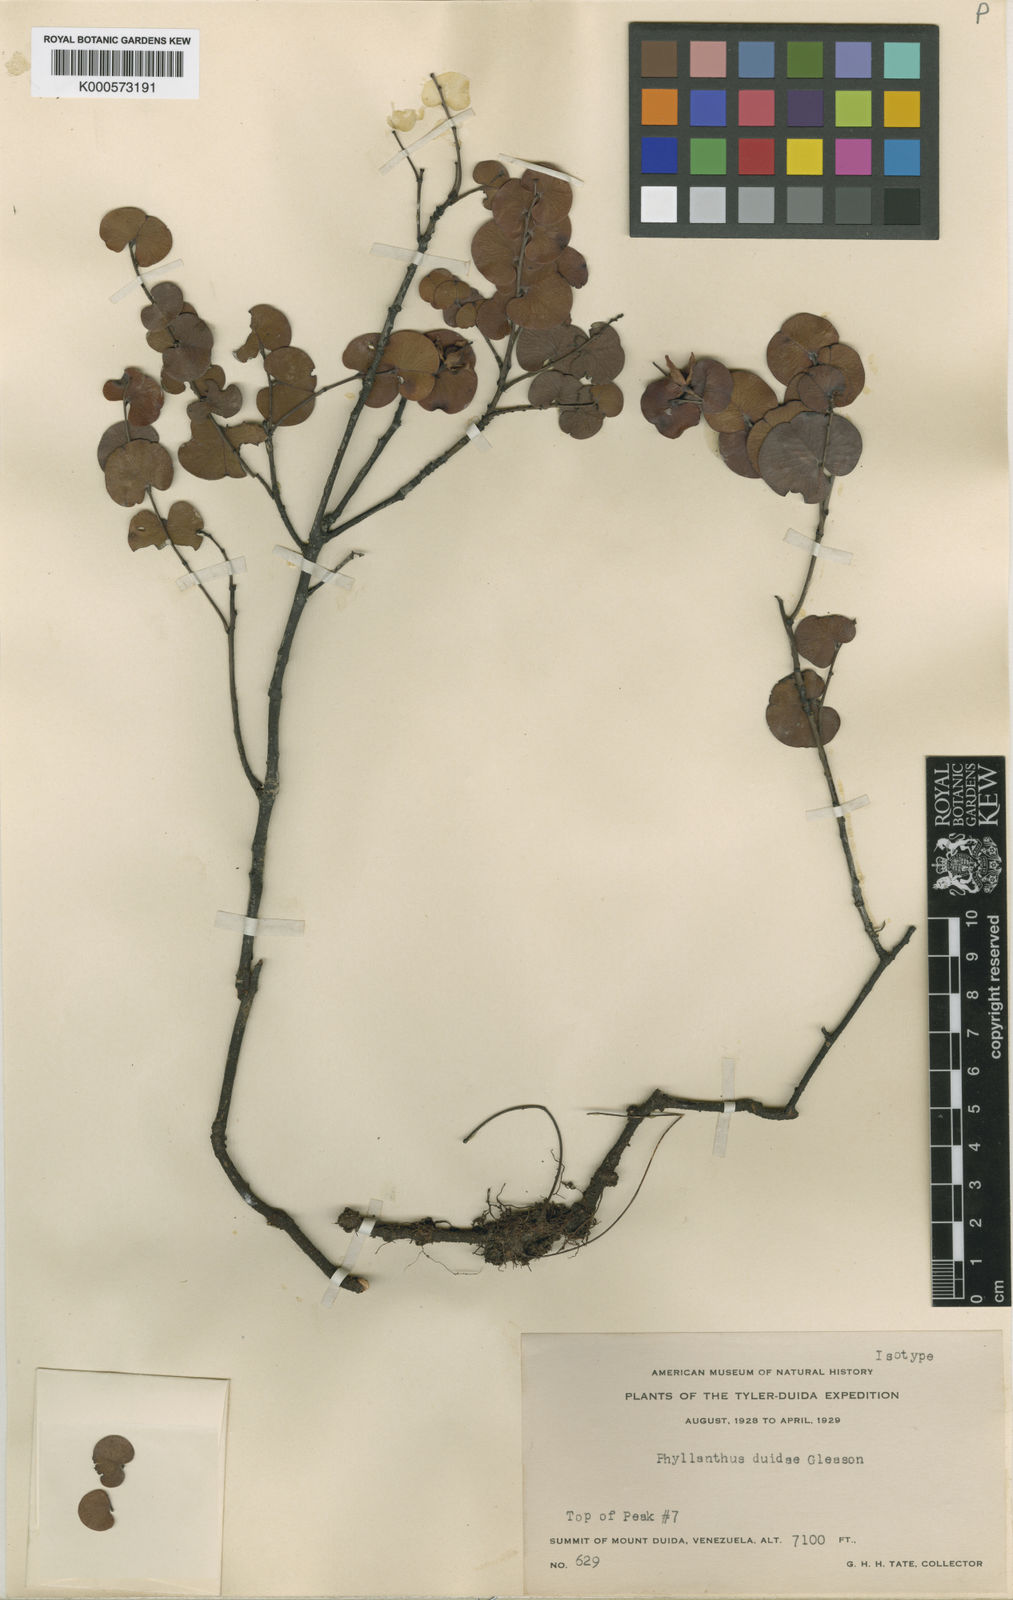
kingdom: Plantae
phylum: Tracheophyta
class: Magnoliopsida
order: Malpighiales
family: Phyllanthaceae
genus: Phyllanthus
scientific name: Phyllanthus duidae
